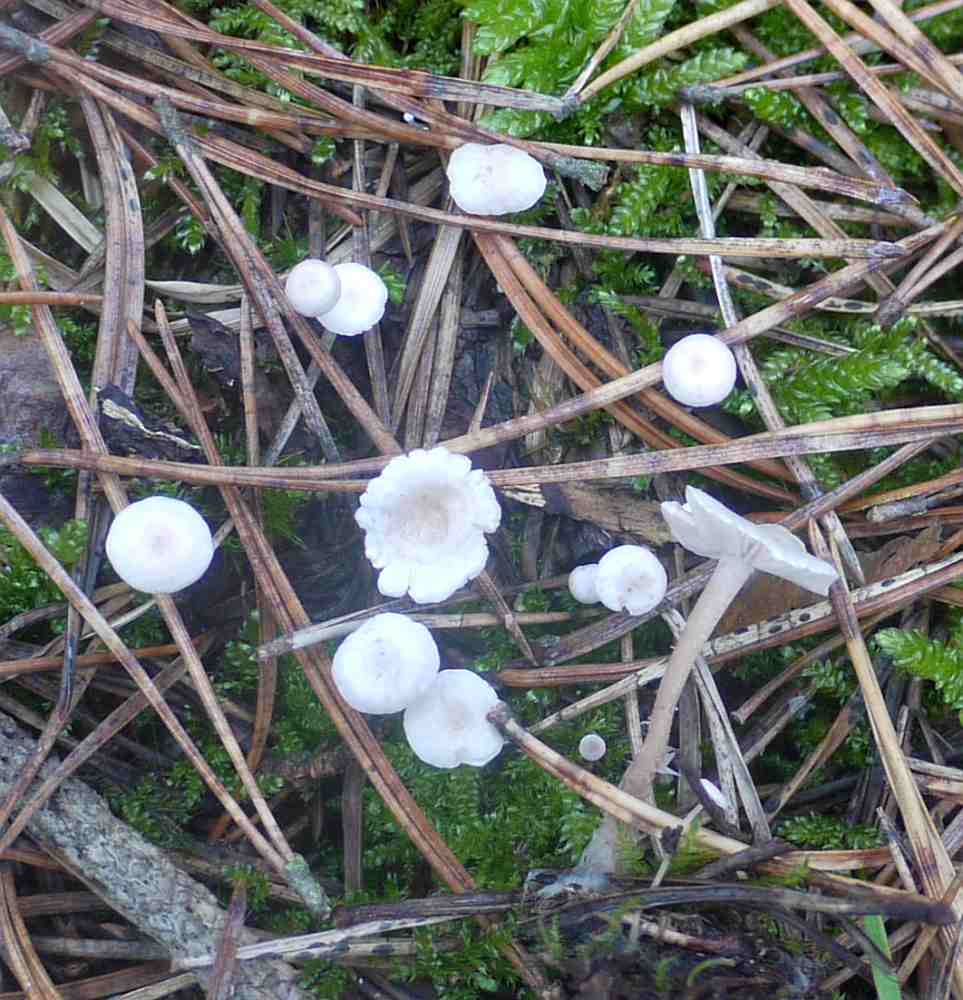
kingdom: Fungi
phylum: Basidiomycota
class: Agaricomycetes
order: Agaricales
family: Tricholomataceae
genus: Collybia
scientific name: Collybia cirrhata
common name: silke-lighat
